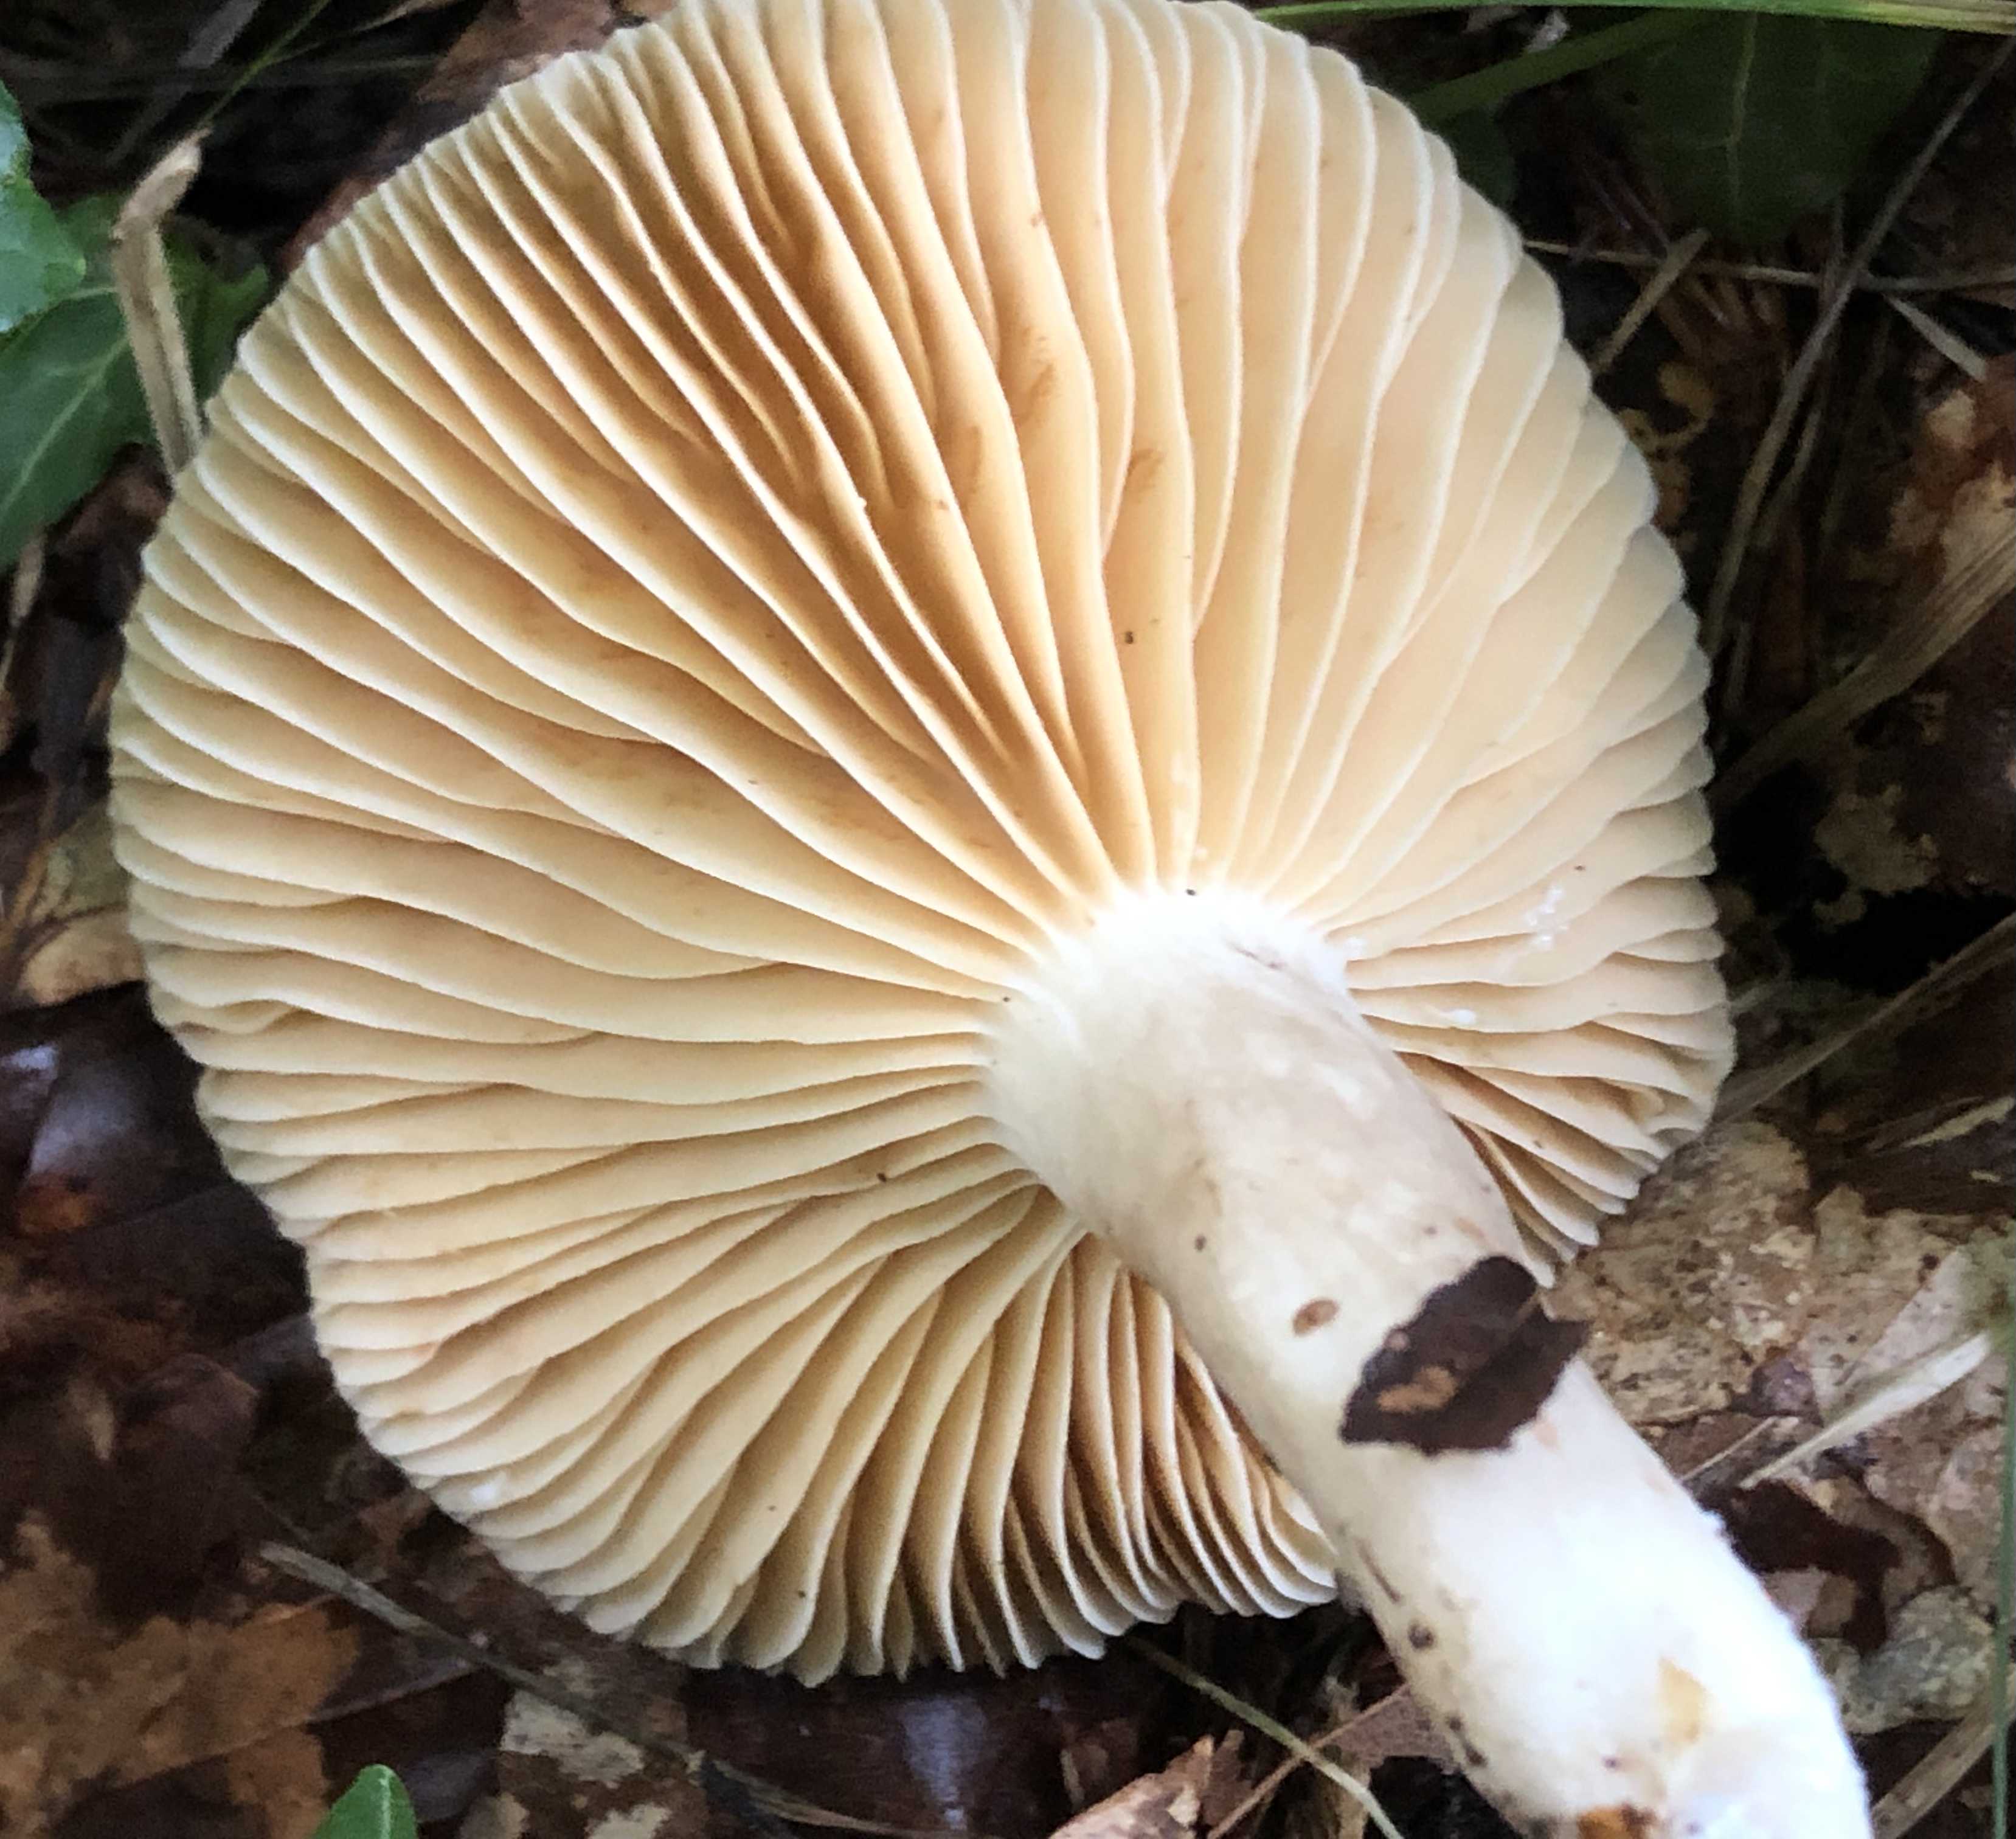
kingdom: Fungi
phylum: Basidiomycota
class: Agaricomycetes
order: Russulales
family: Russulaceae
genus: Lactarius
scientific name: Lactarius pterosporus
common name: vingesporet mælkehat
